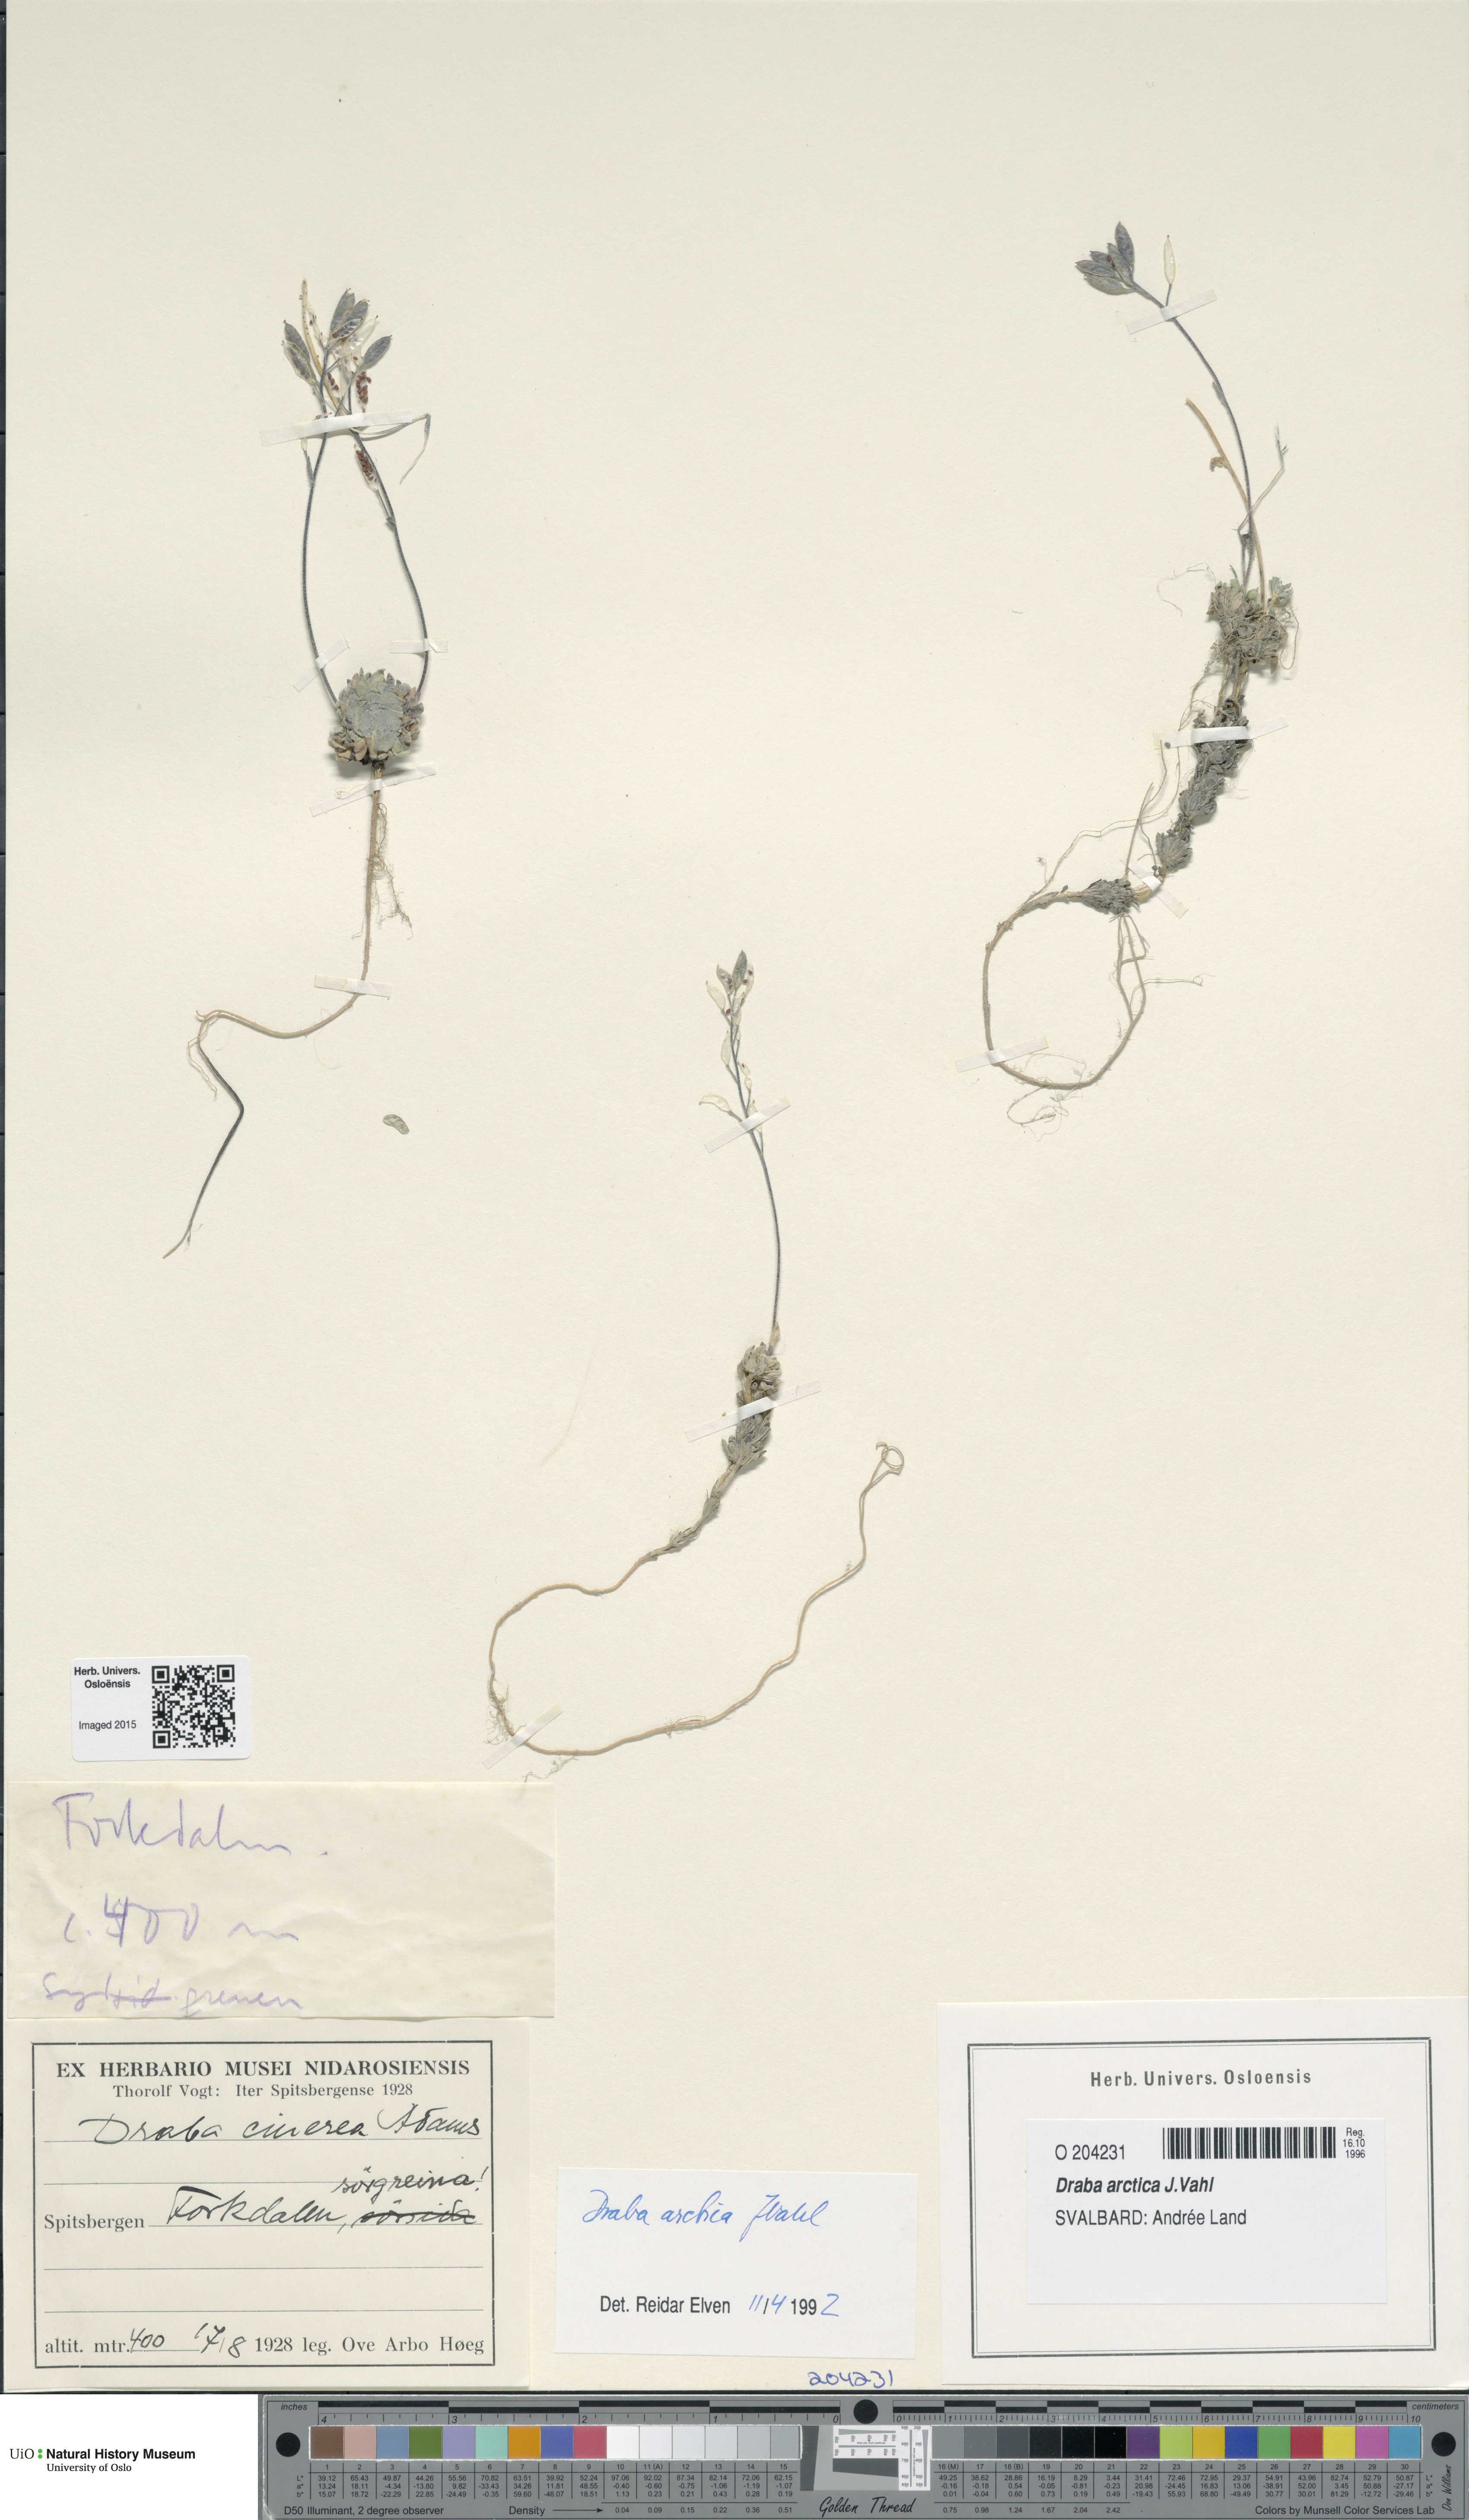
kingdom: Plantae
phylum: Tracheophyta
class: Magnoliopsida
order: Brassicales
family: Brassicaceae
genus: Draba
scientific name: Draba arctica
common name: Arctic draba
